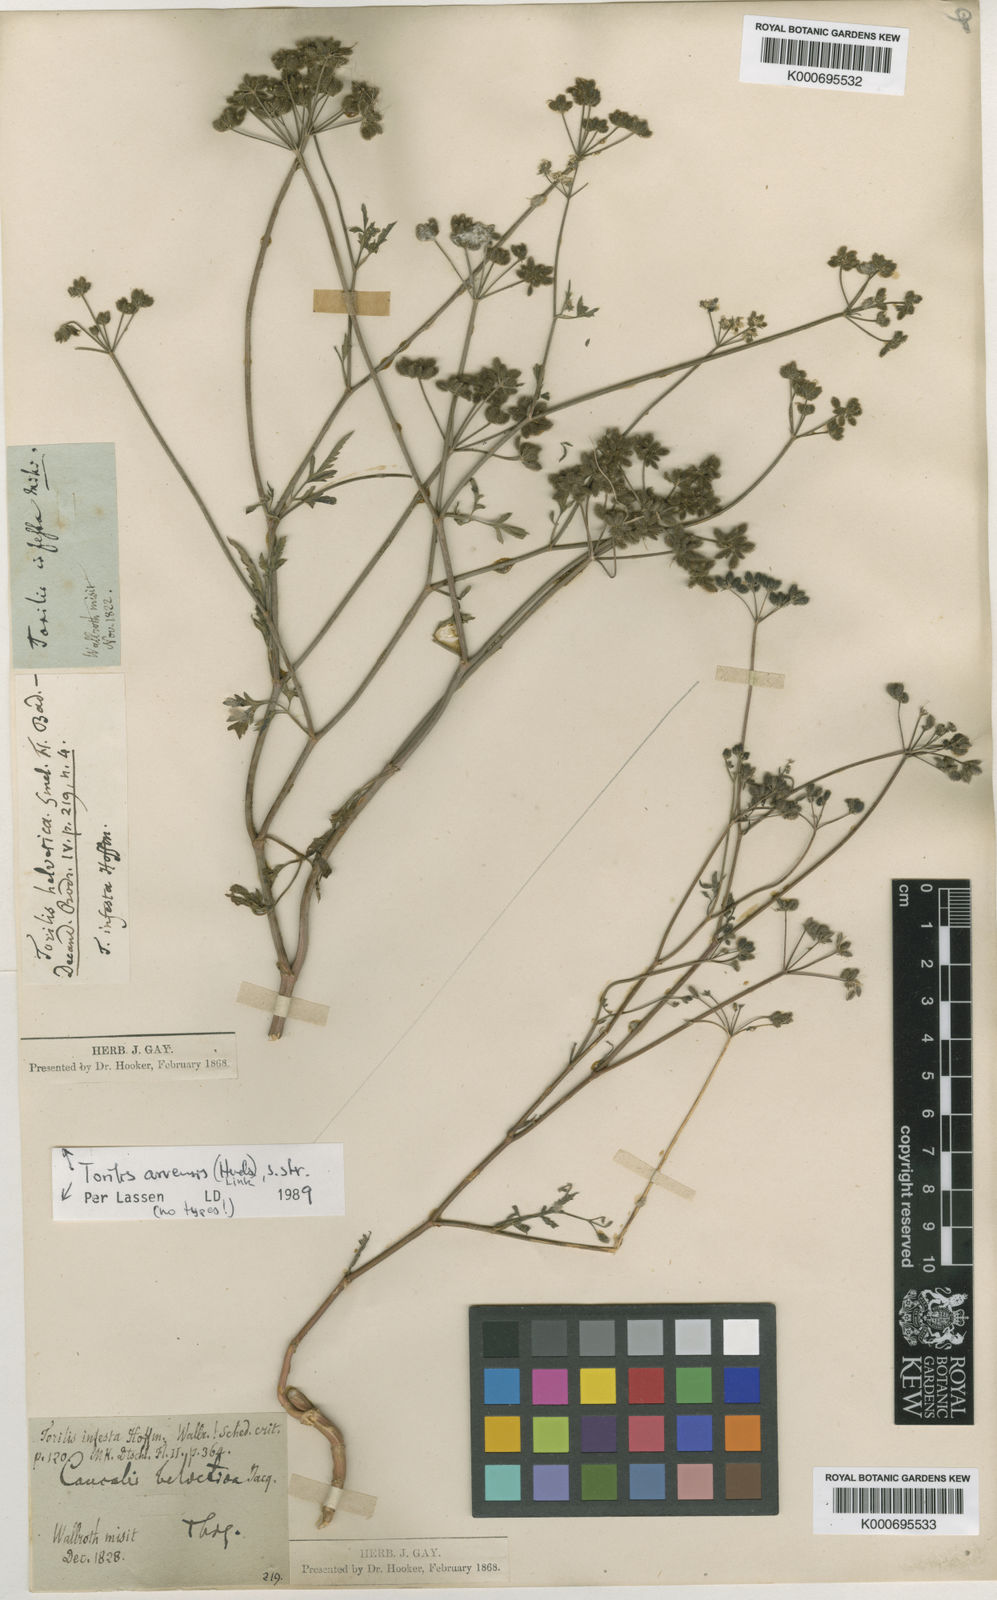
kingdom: Plantae
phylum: Tracheophyta
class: Magnoliopsida
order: Apiales
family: Apiaceae
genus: Torilis
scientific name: Torilis arvensis
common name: Spreading hedge-parsley
